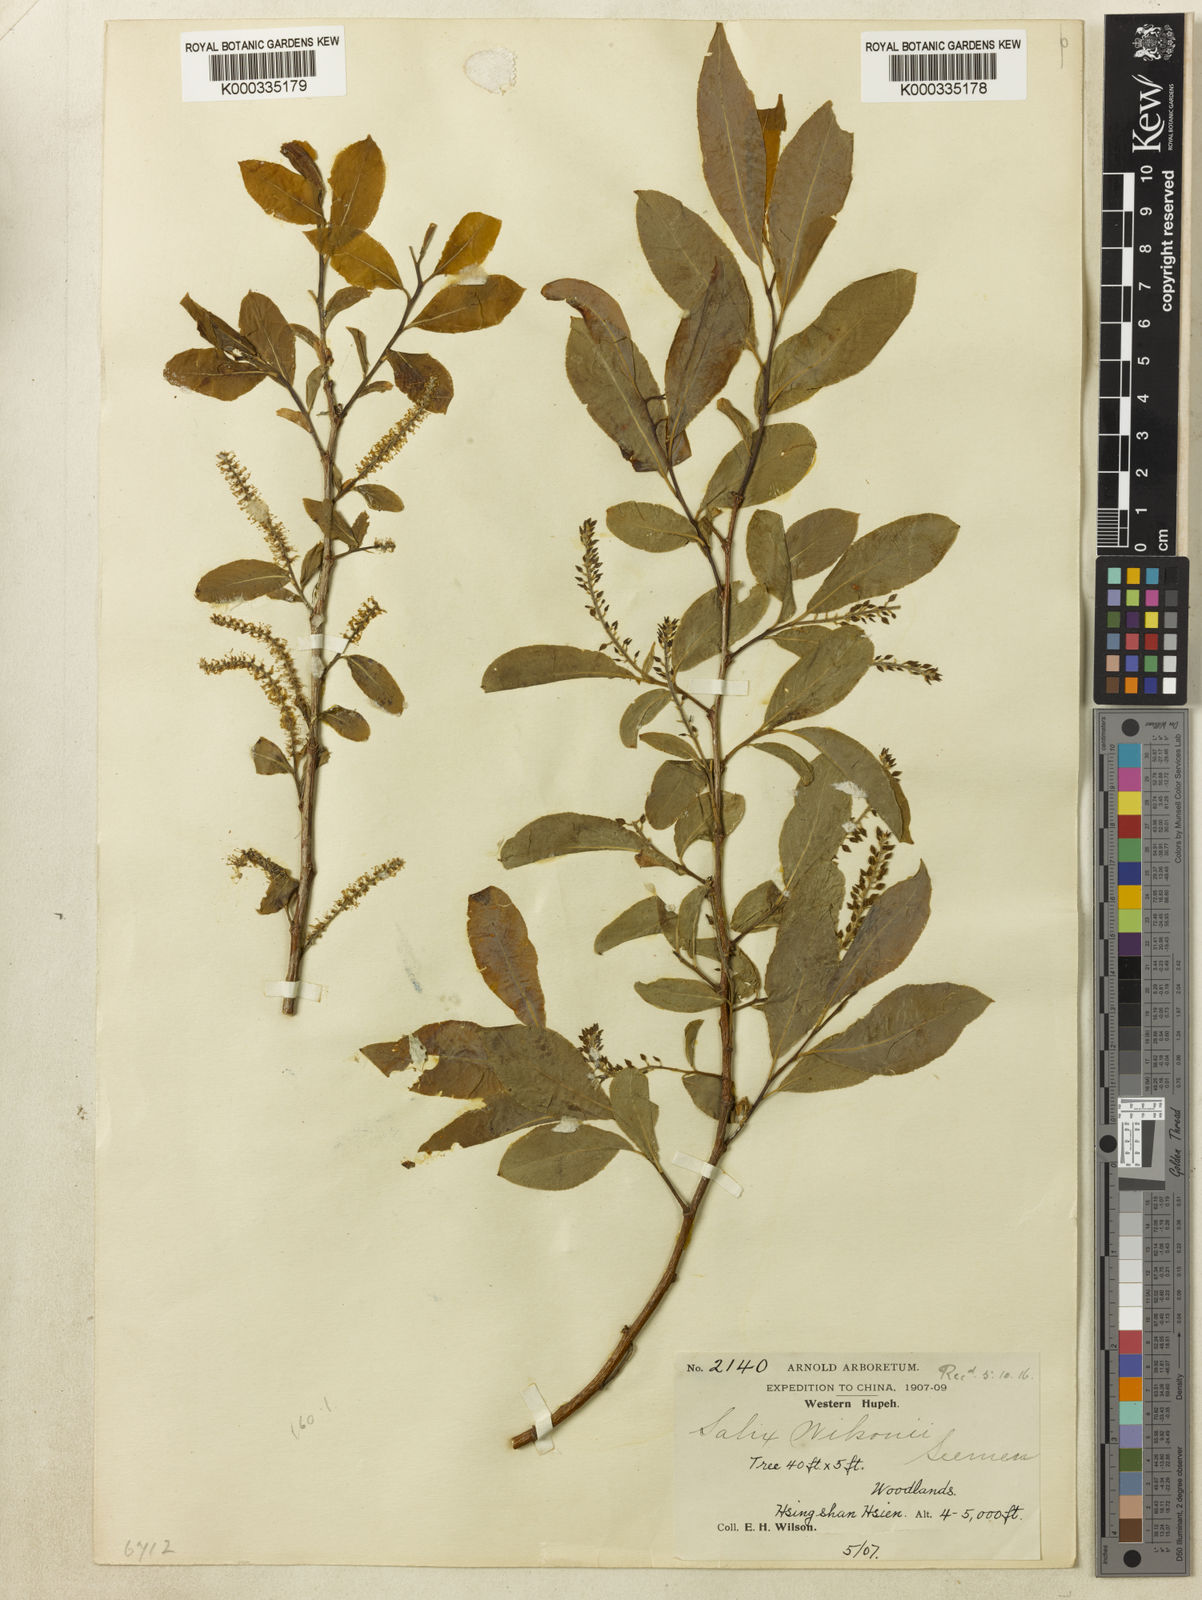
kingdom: Plantae
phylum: Tracheophyta
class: Magnoliopsida
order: Malpighiales
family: Salicaceae
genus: Salix
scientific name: Salix wilsonii
